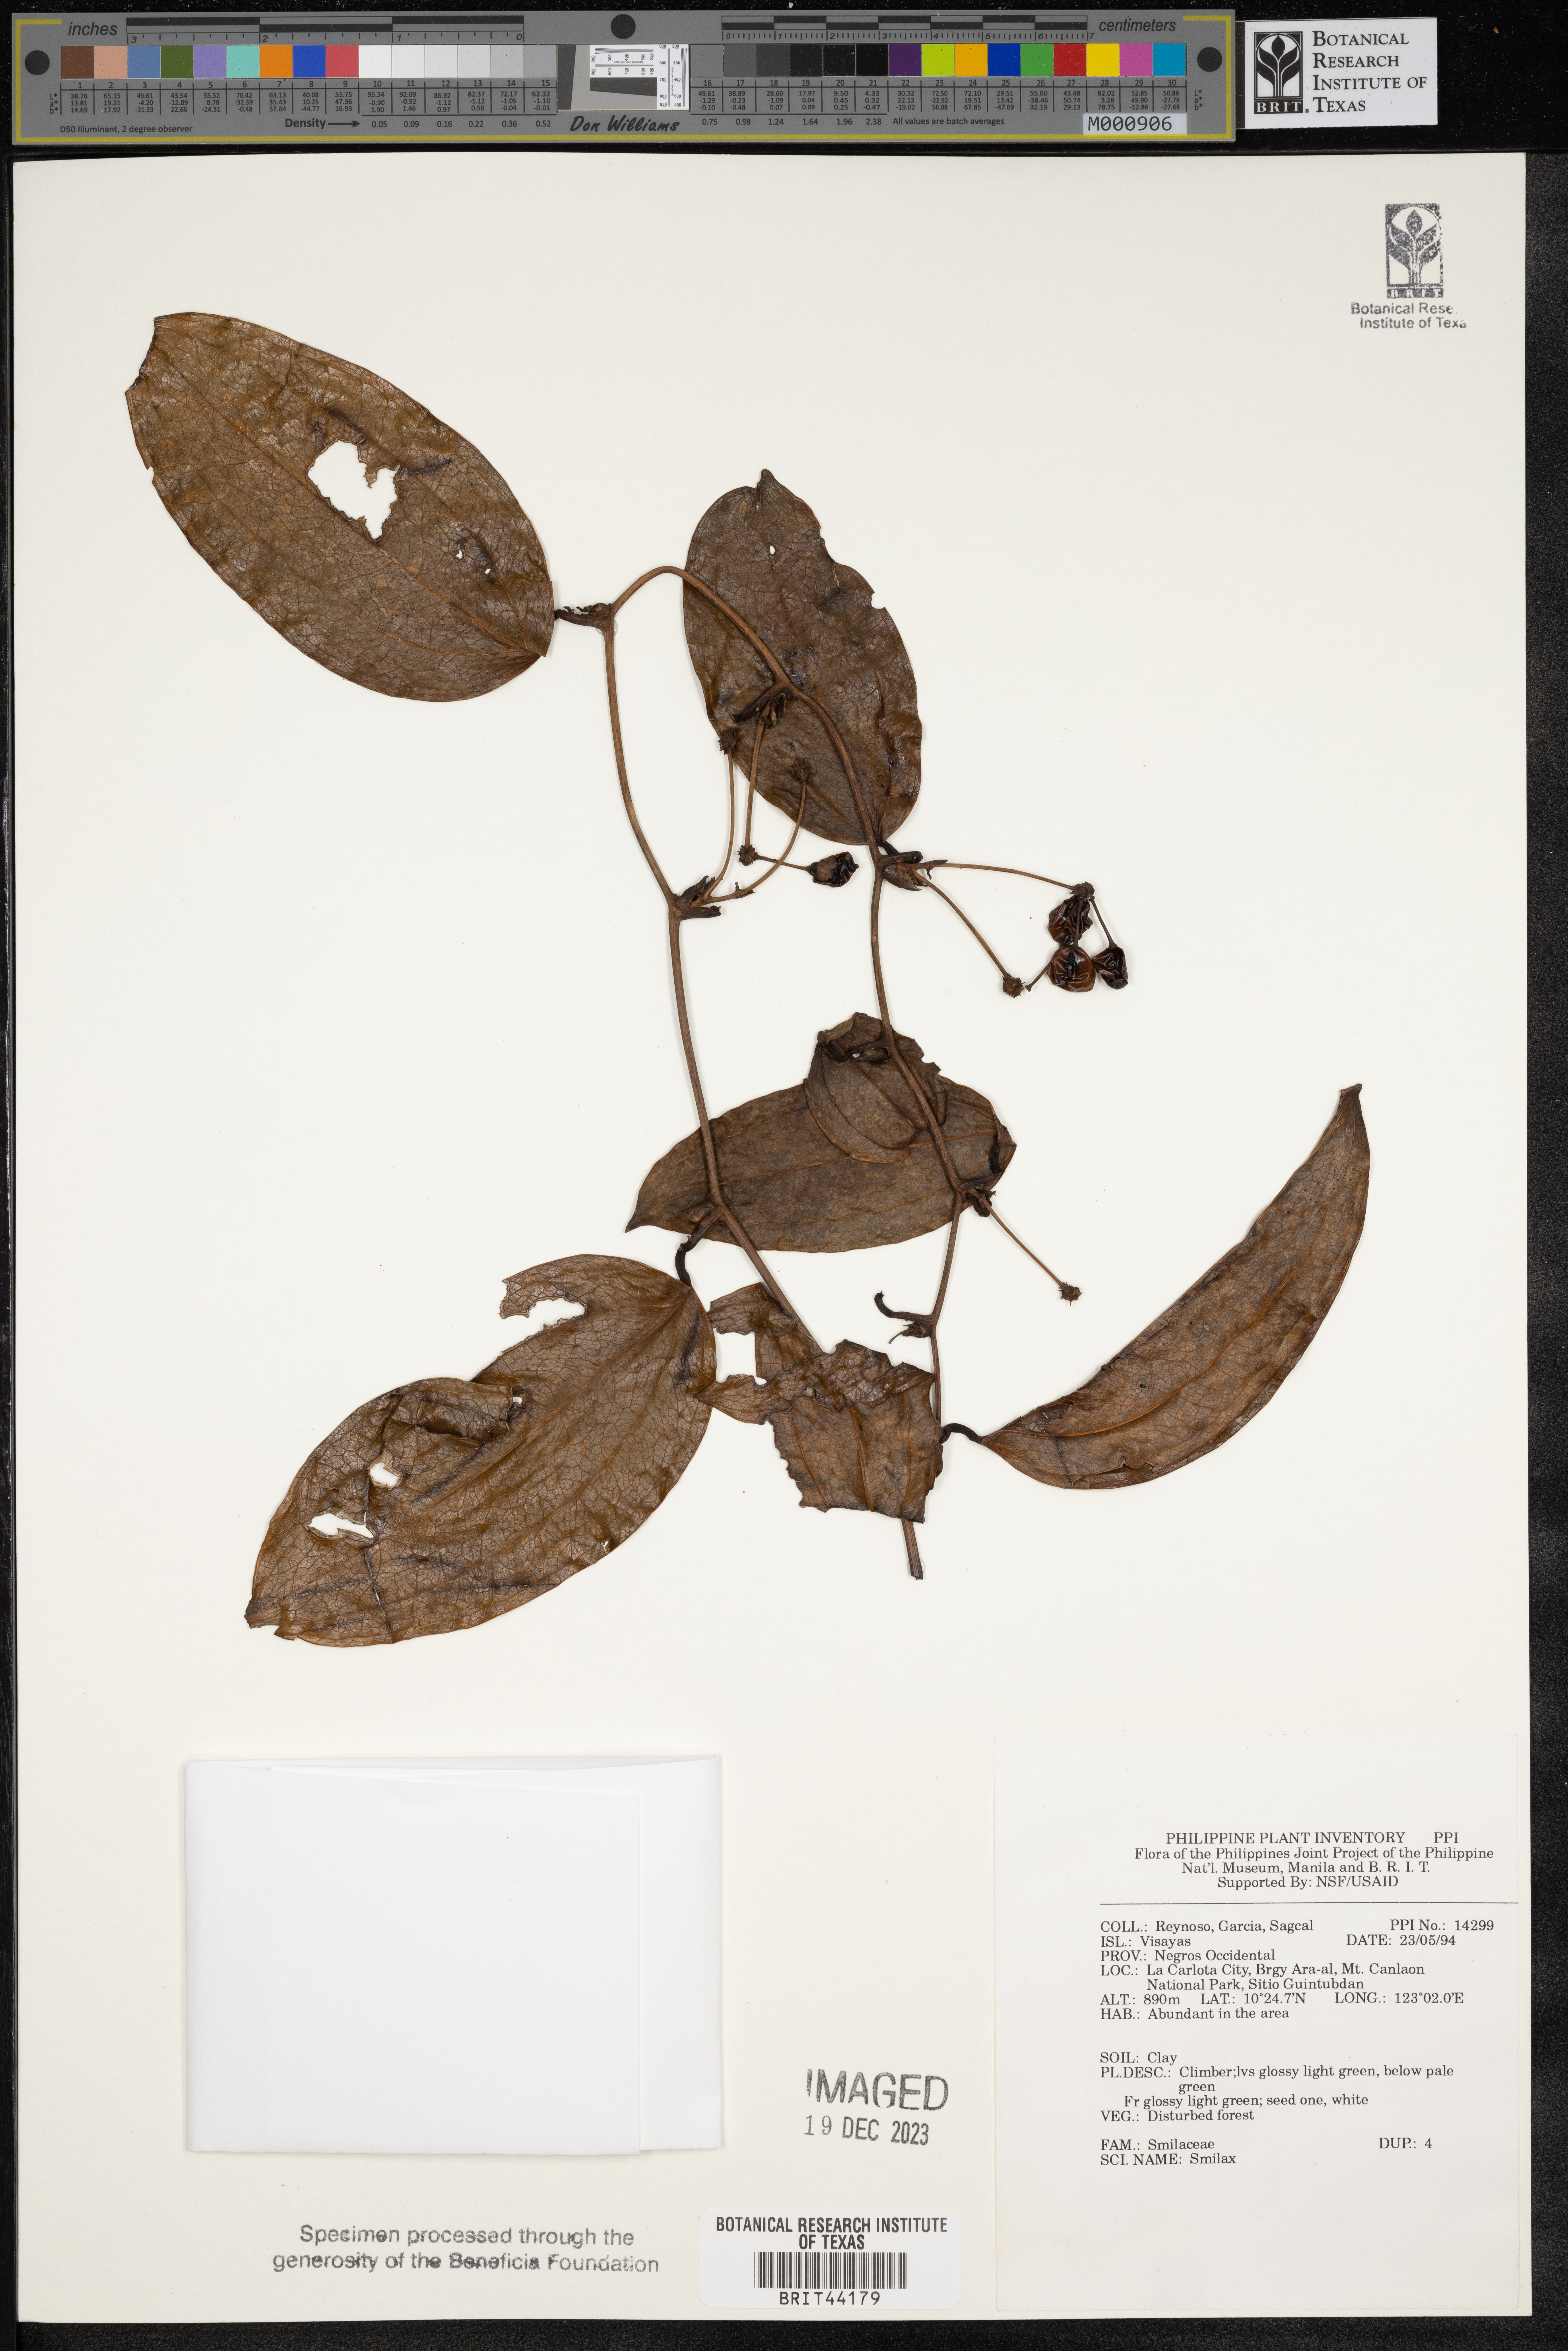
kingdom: Plantae
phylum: Tracheophyta
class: Liliopsida
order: Liliales
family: Smilacaceae
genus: Smilax
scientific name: Smilax
